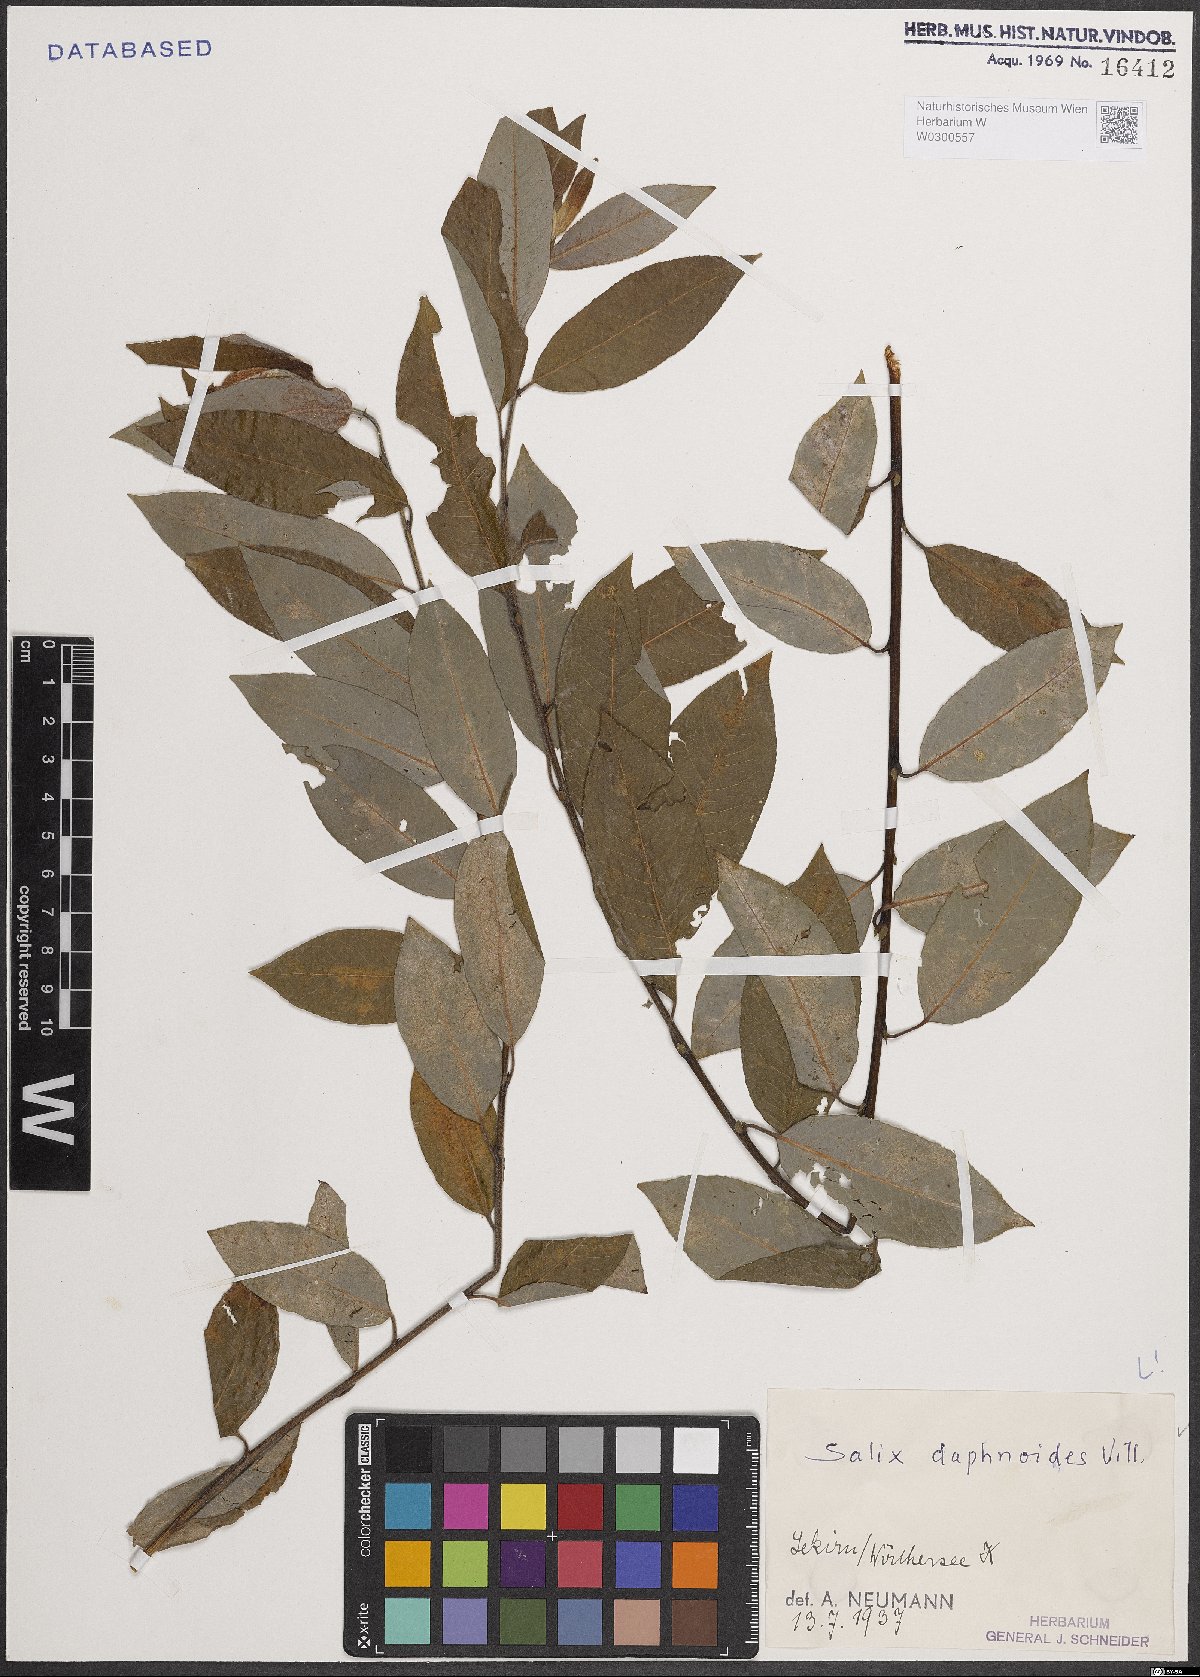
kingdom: Plantae
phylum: Tracheophyta
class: Magnoliopsida
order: Malpighiales
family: Salicaceae
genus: Salix
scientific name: Salix daphnoides
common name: European violet-willow
